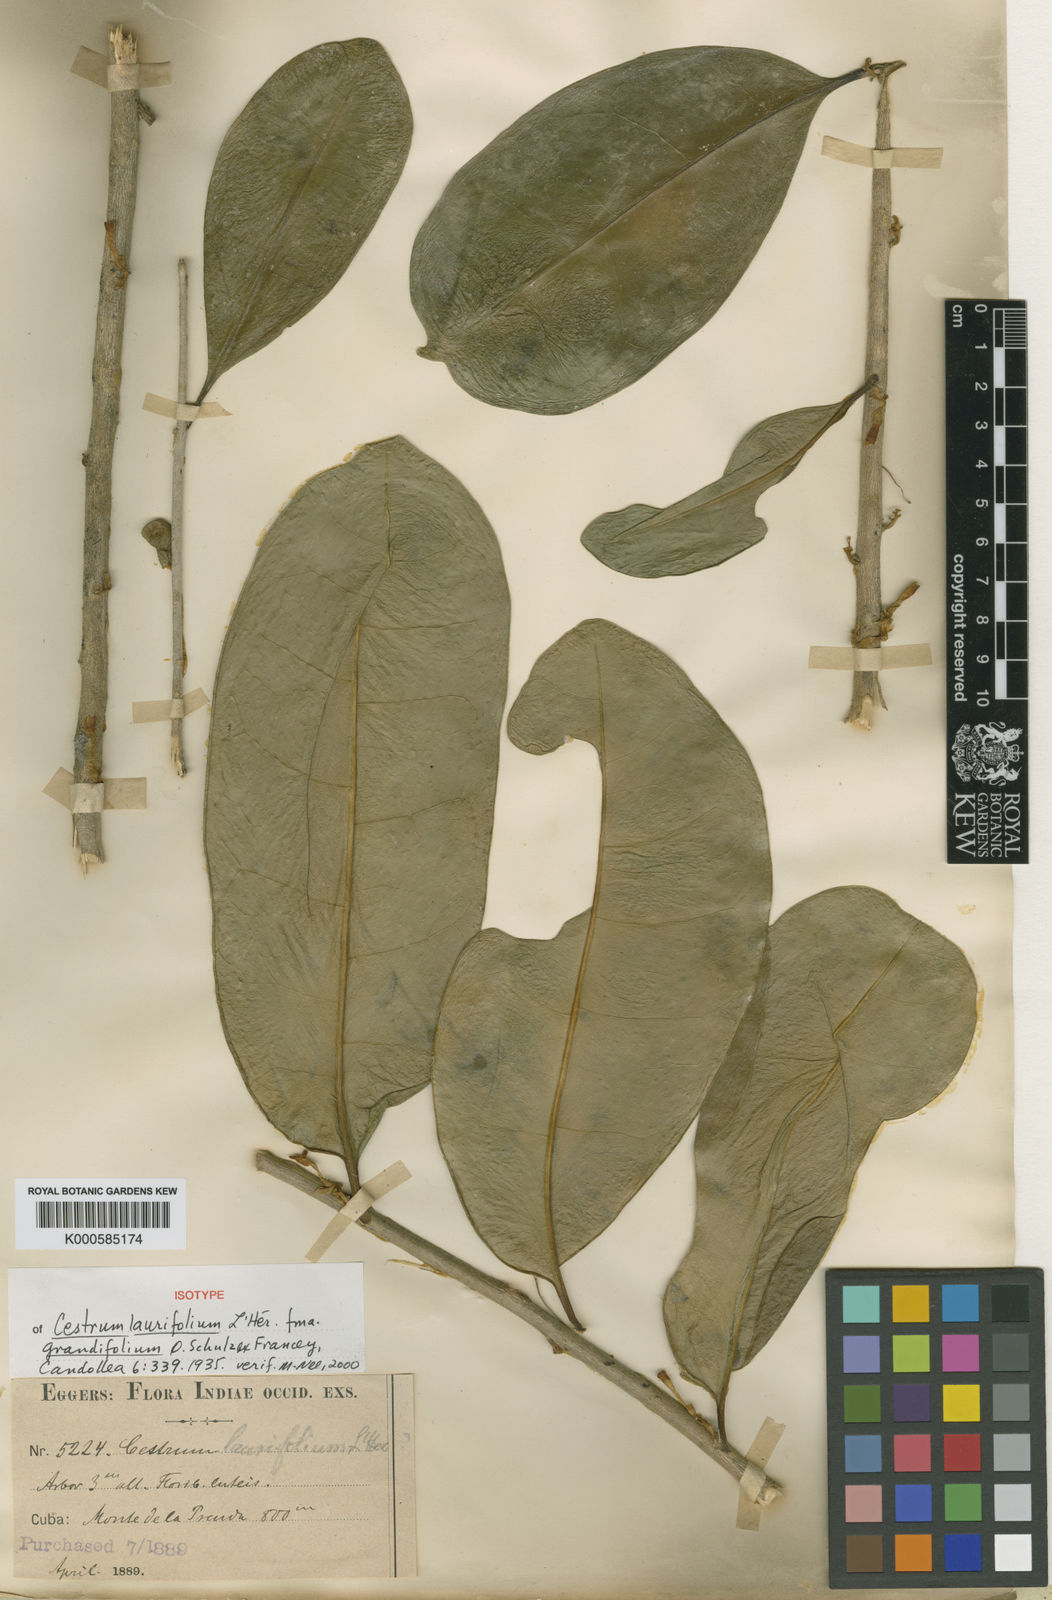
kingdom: Plantae
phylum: Tracheophyta
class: Magnoliopsida
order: Solanales
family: Solanaceae
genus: Cestrum
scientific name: Cestrum
